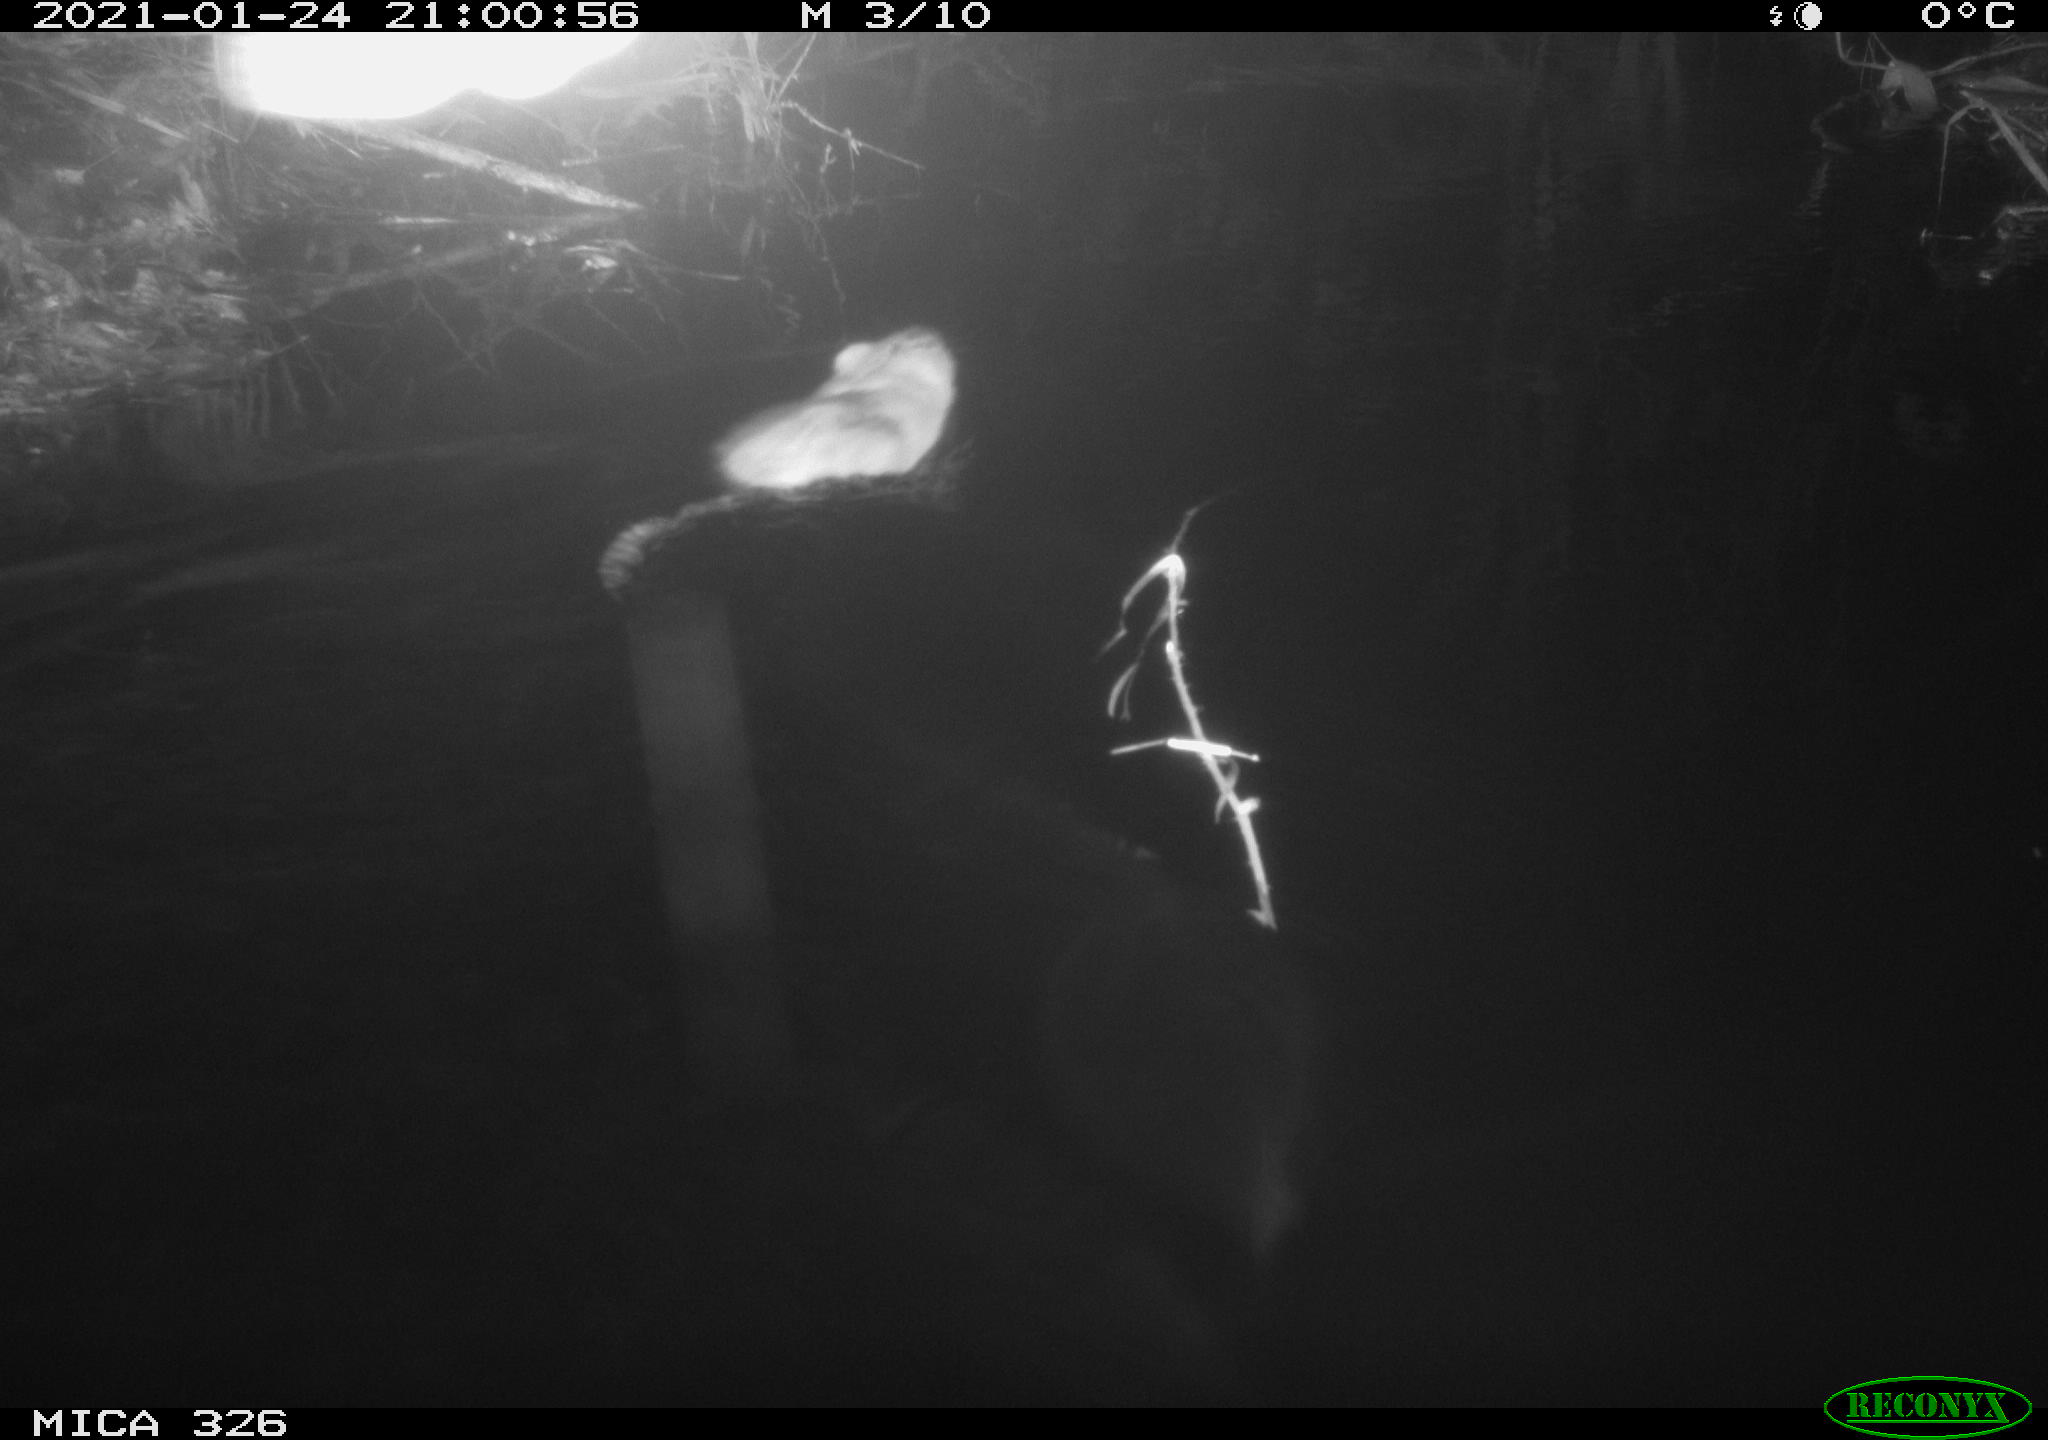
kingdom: Animalia
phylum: Chordata
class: Mammalia
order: Rodentia
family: Cricetidae
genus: Ondatra
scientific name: Ondatra zibethicus
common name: Muskrat
